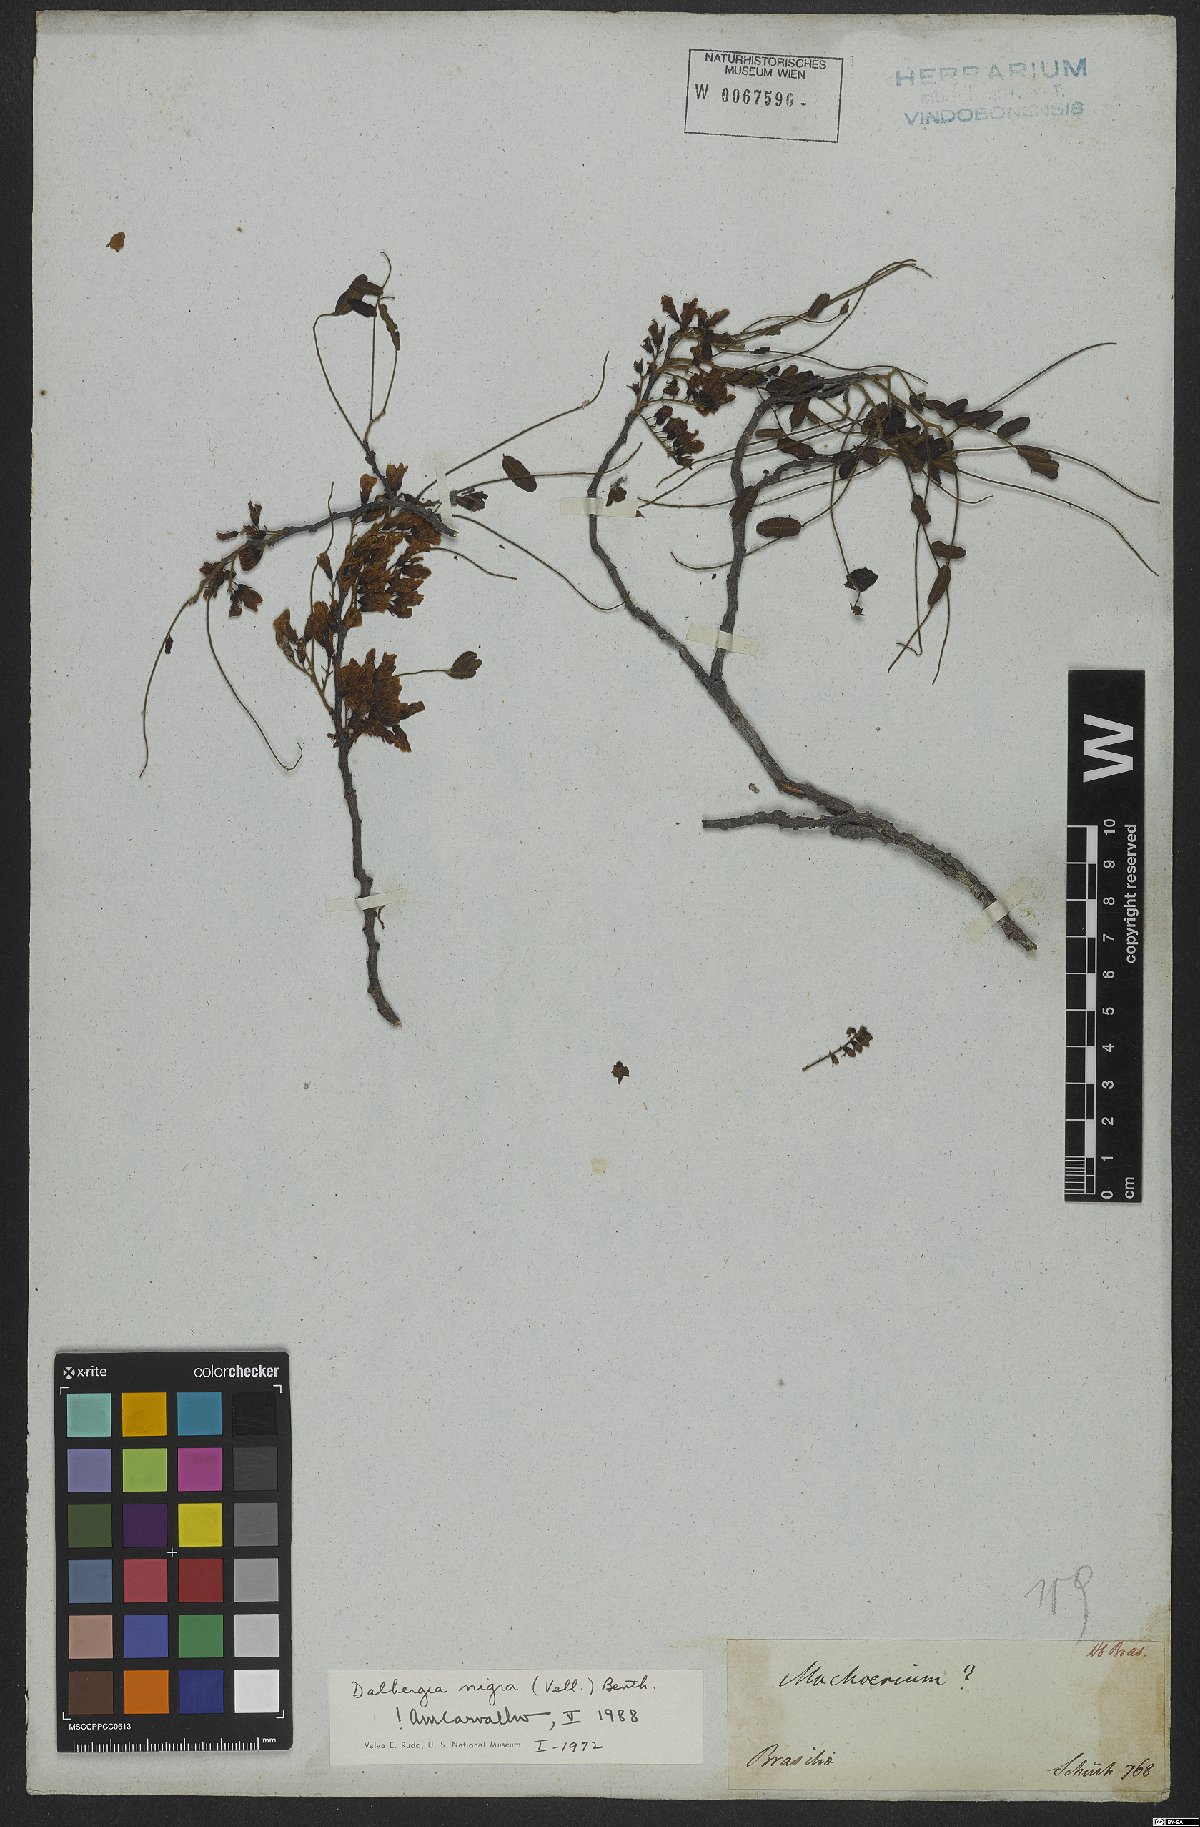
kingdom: Plantae
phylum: Tracheophyta
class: Magnoliopsida
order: Fabales
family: Fabaceae
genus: Dalbergia
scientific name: Dalbergia nigra
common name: Bahia rosewood
